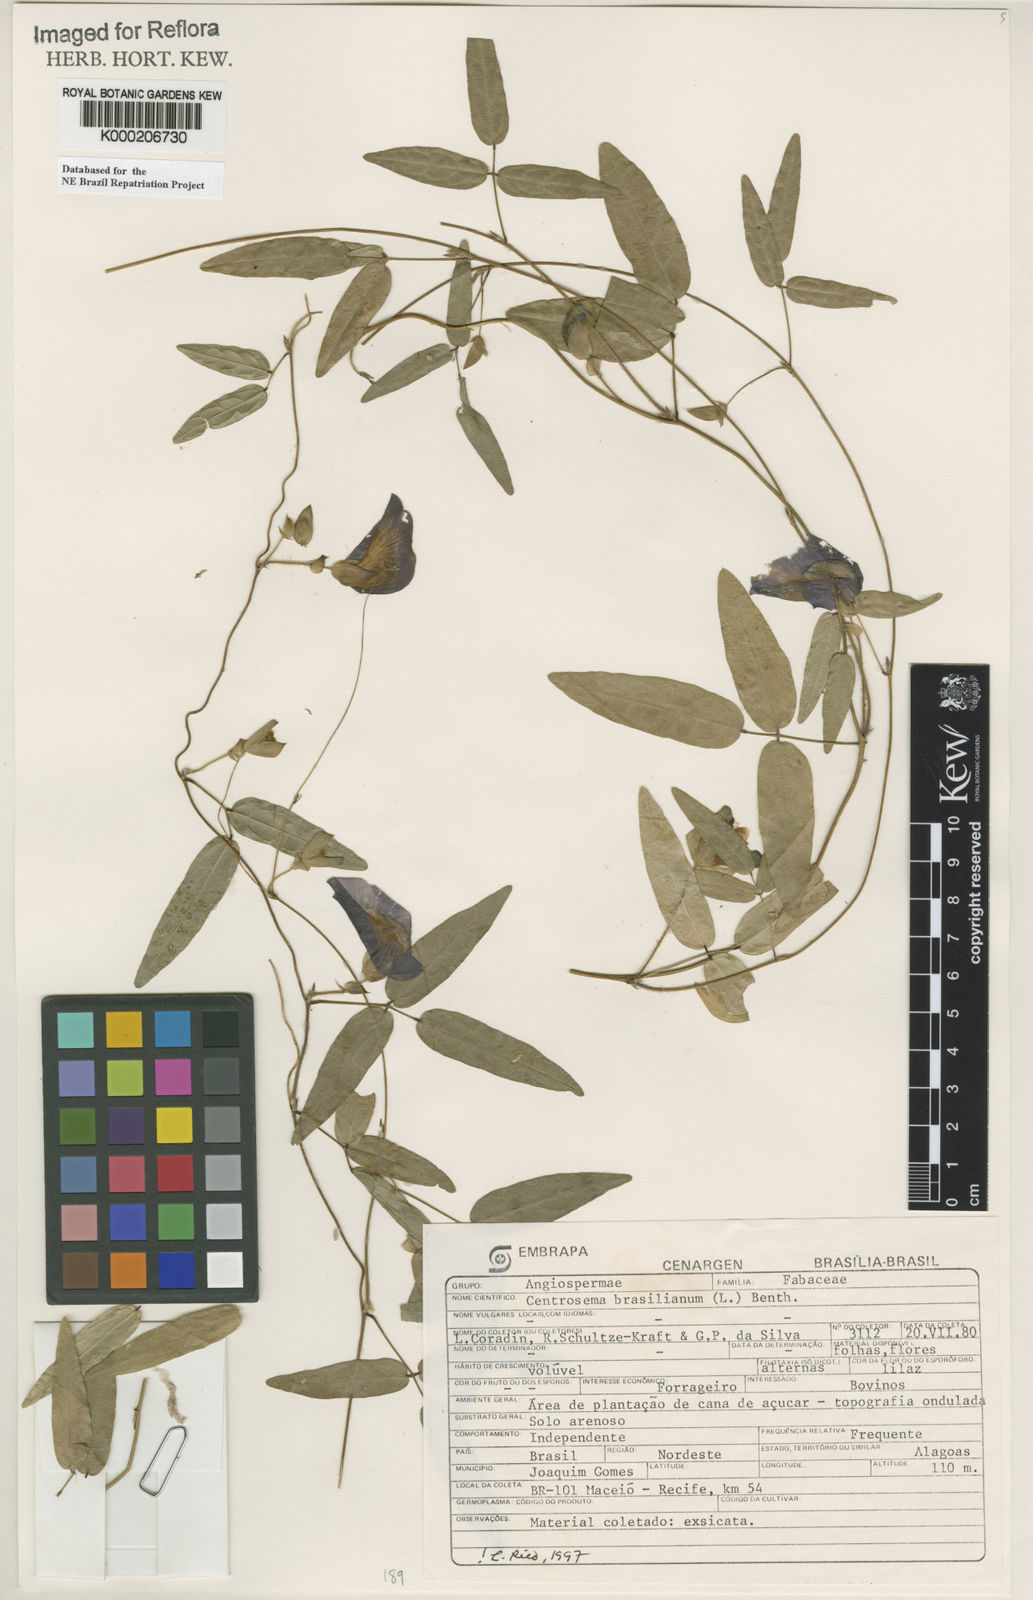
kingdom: Plantae
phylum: Tracheophyta
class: Magnoliopsida
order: Fabales
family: Fabaceae
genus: Centrosema
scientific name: Centrosema brasilianum
